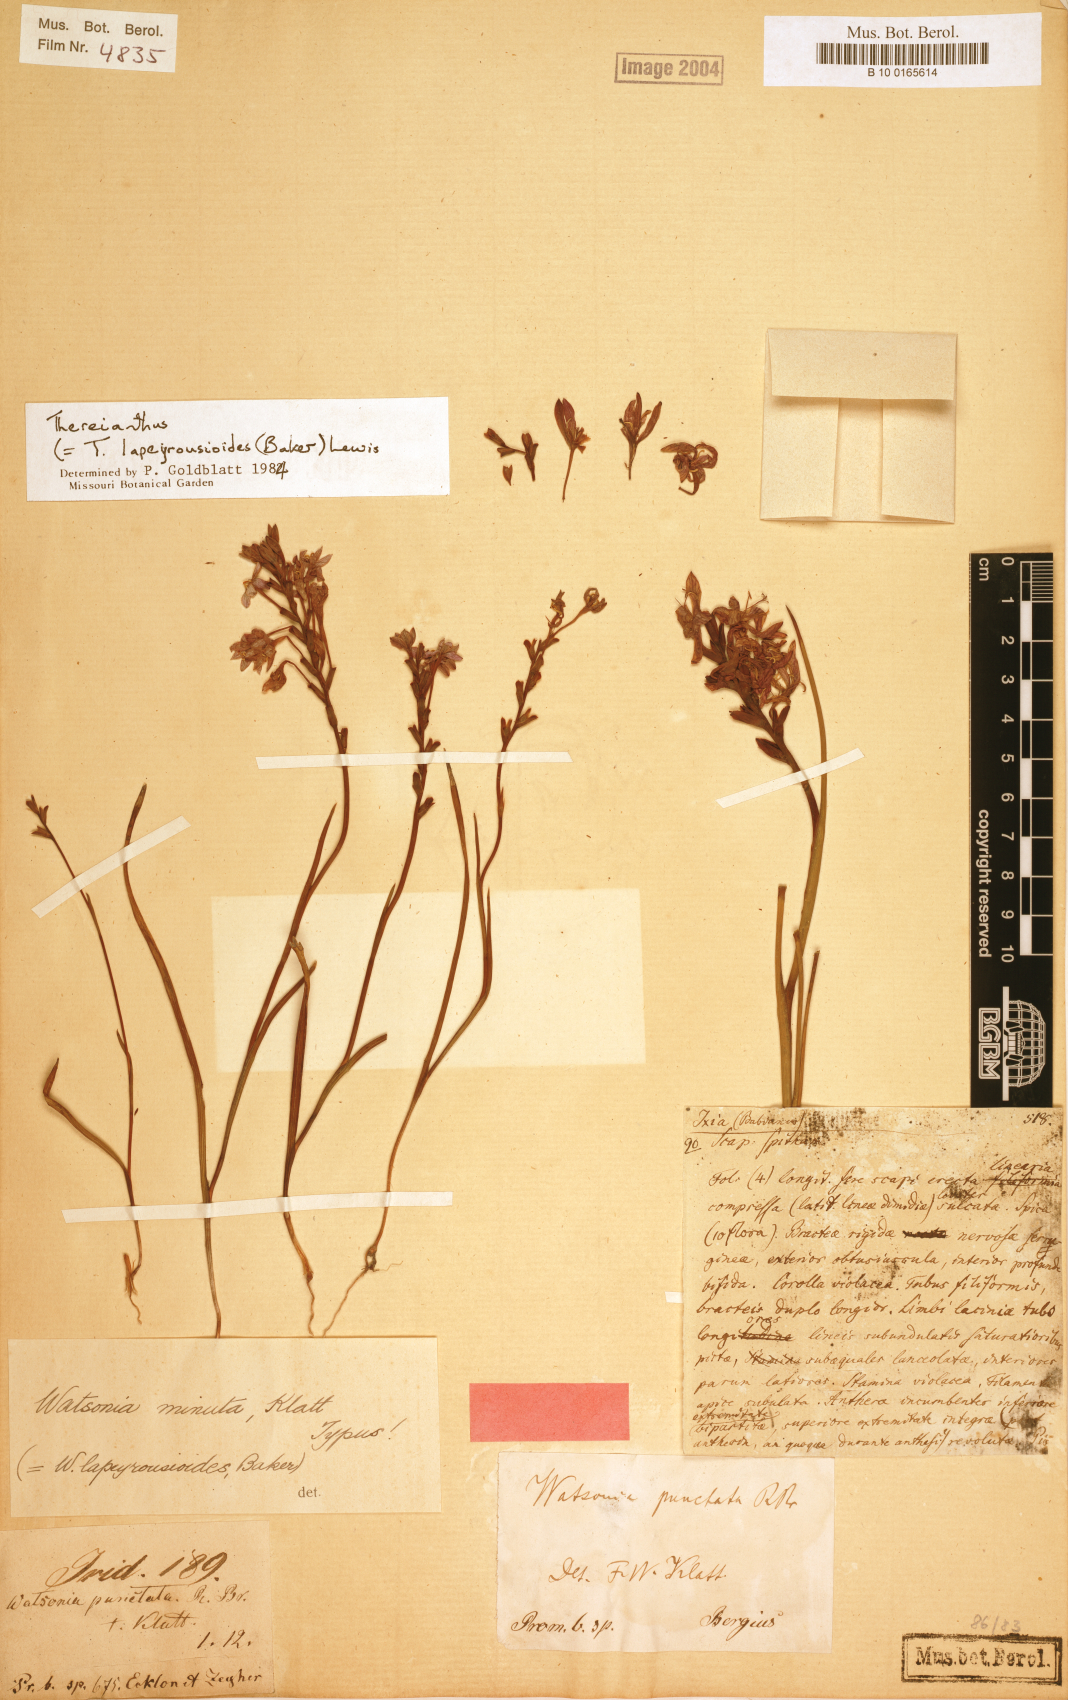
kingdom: Plantae
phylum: Tracheophyta
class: Liliopsida
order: Asparagales
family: Iridaceae
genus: Thereianthus
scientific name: Thereianthus minutus
